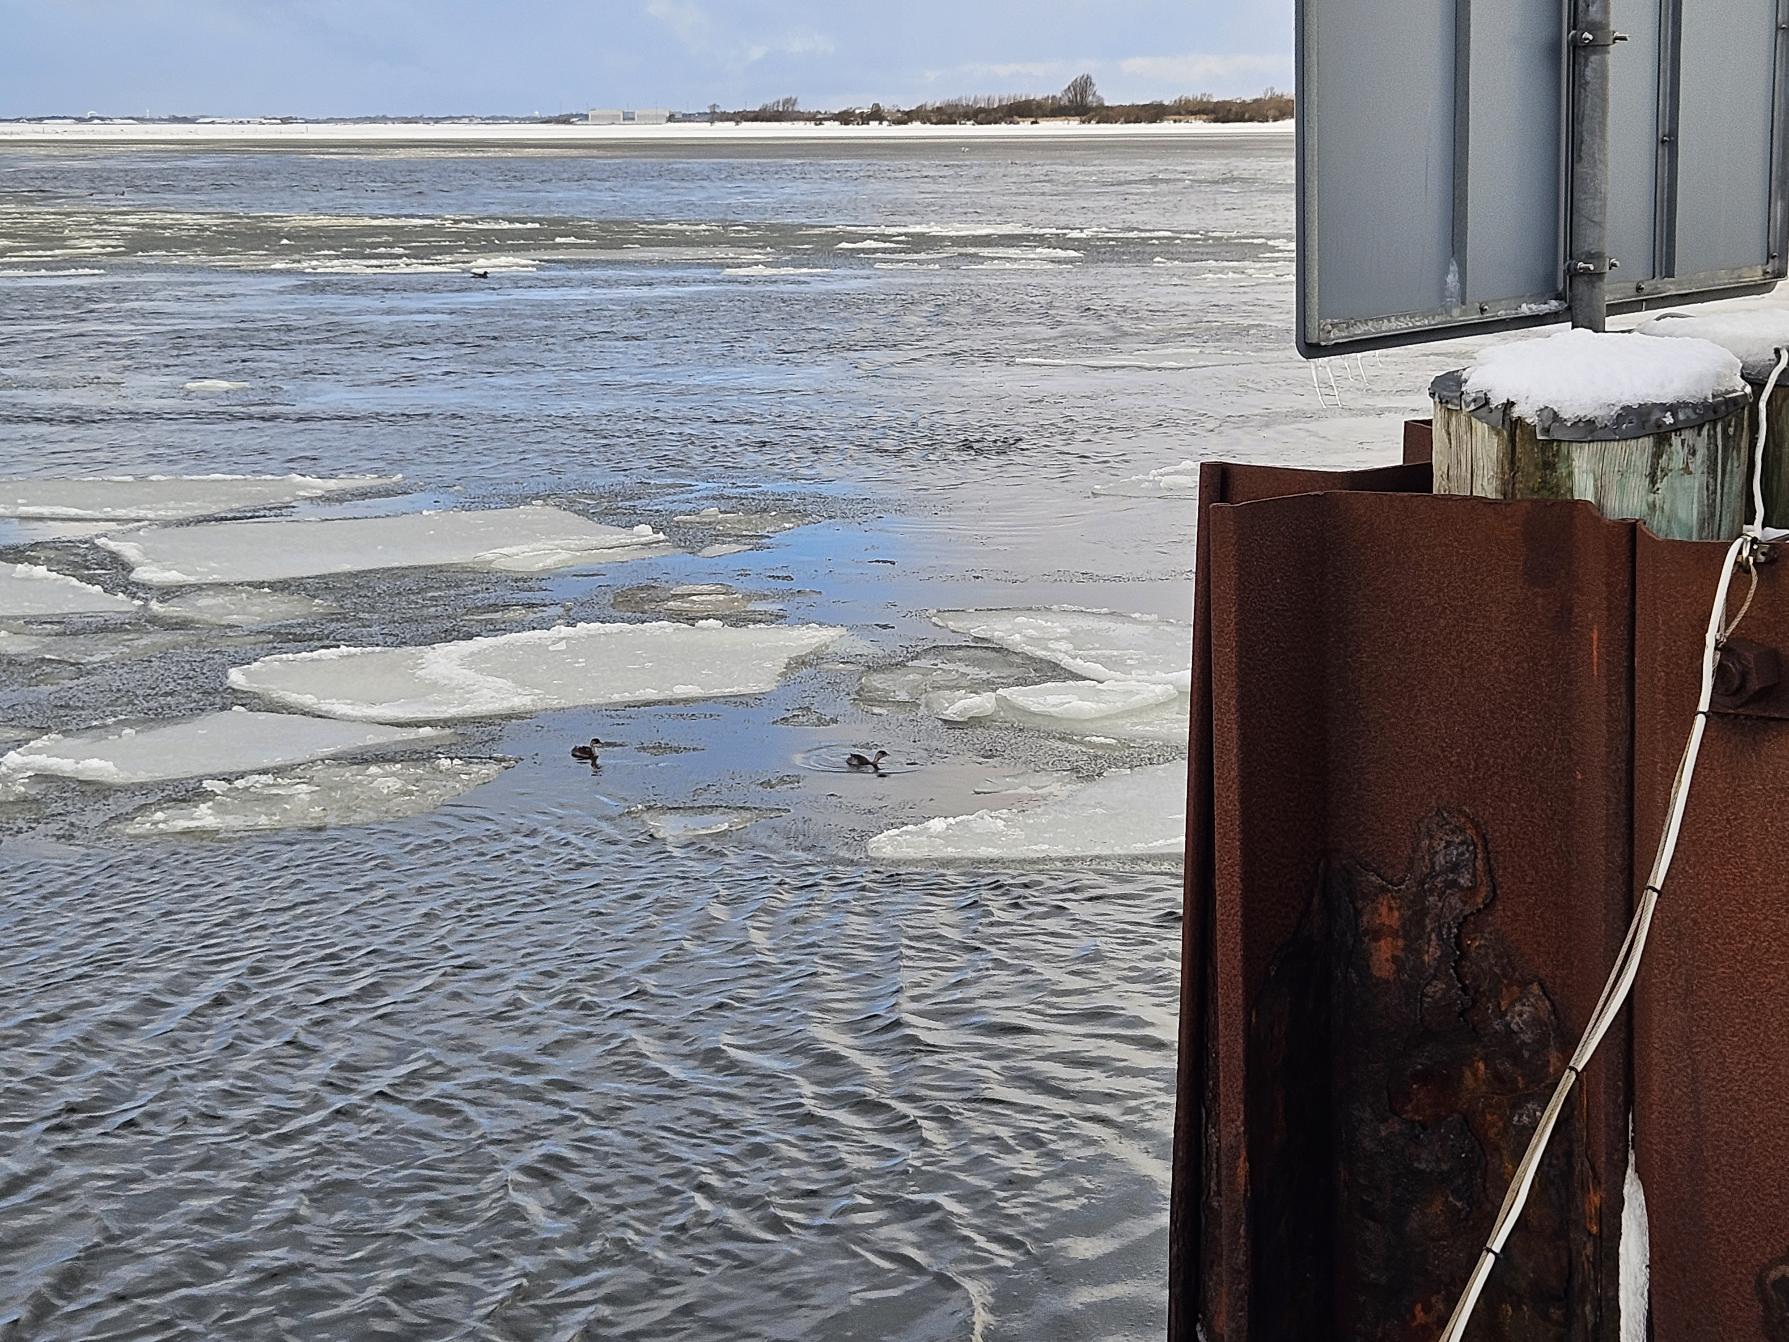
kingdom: Animalia
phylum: Chordata
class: Aves
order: Podicipediformes
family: Podicipedidae
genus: Tachybaptus
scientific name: Tachybaptus ruficollis
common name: Lille lappedykker
